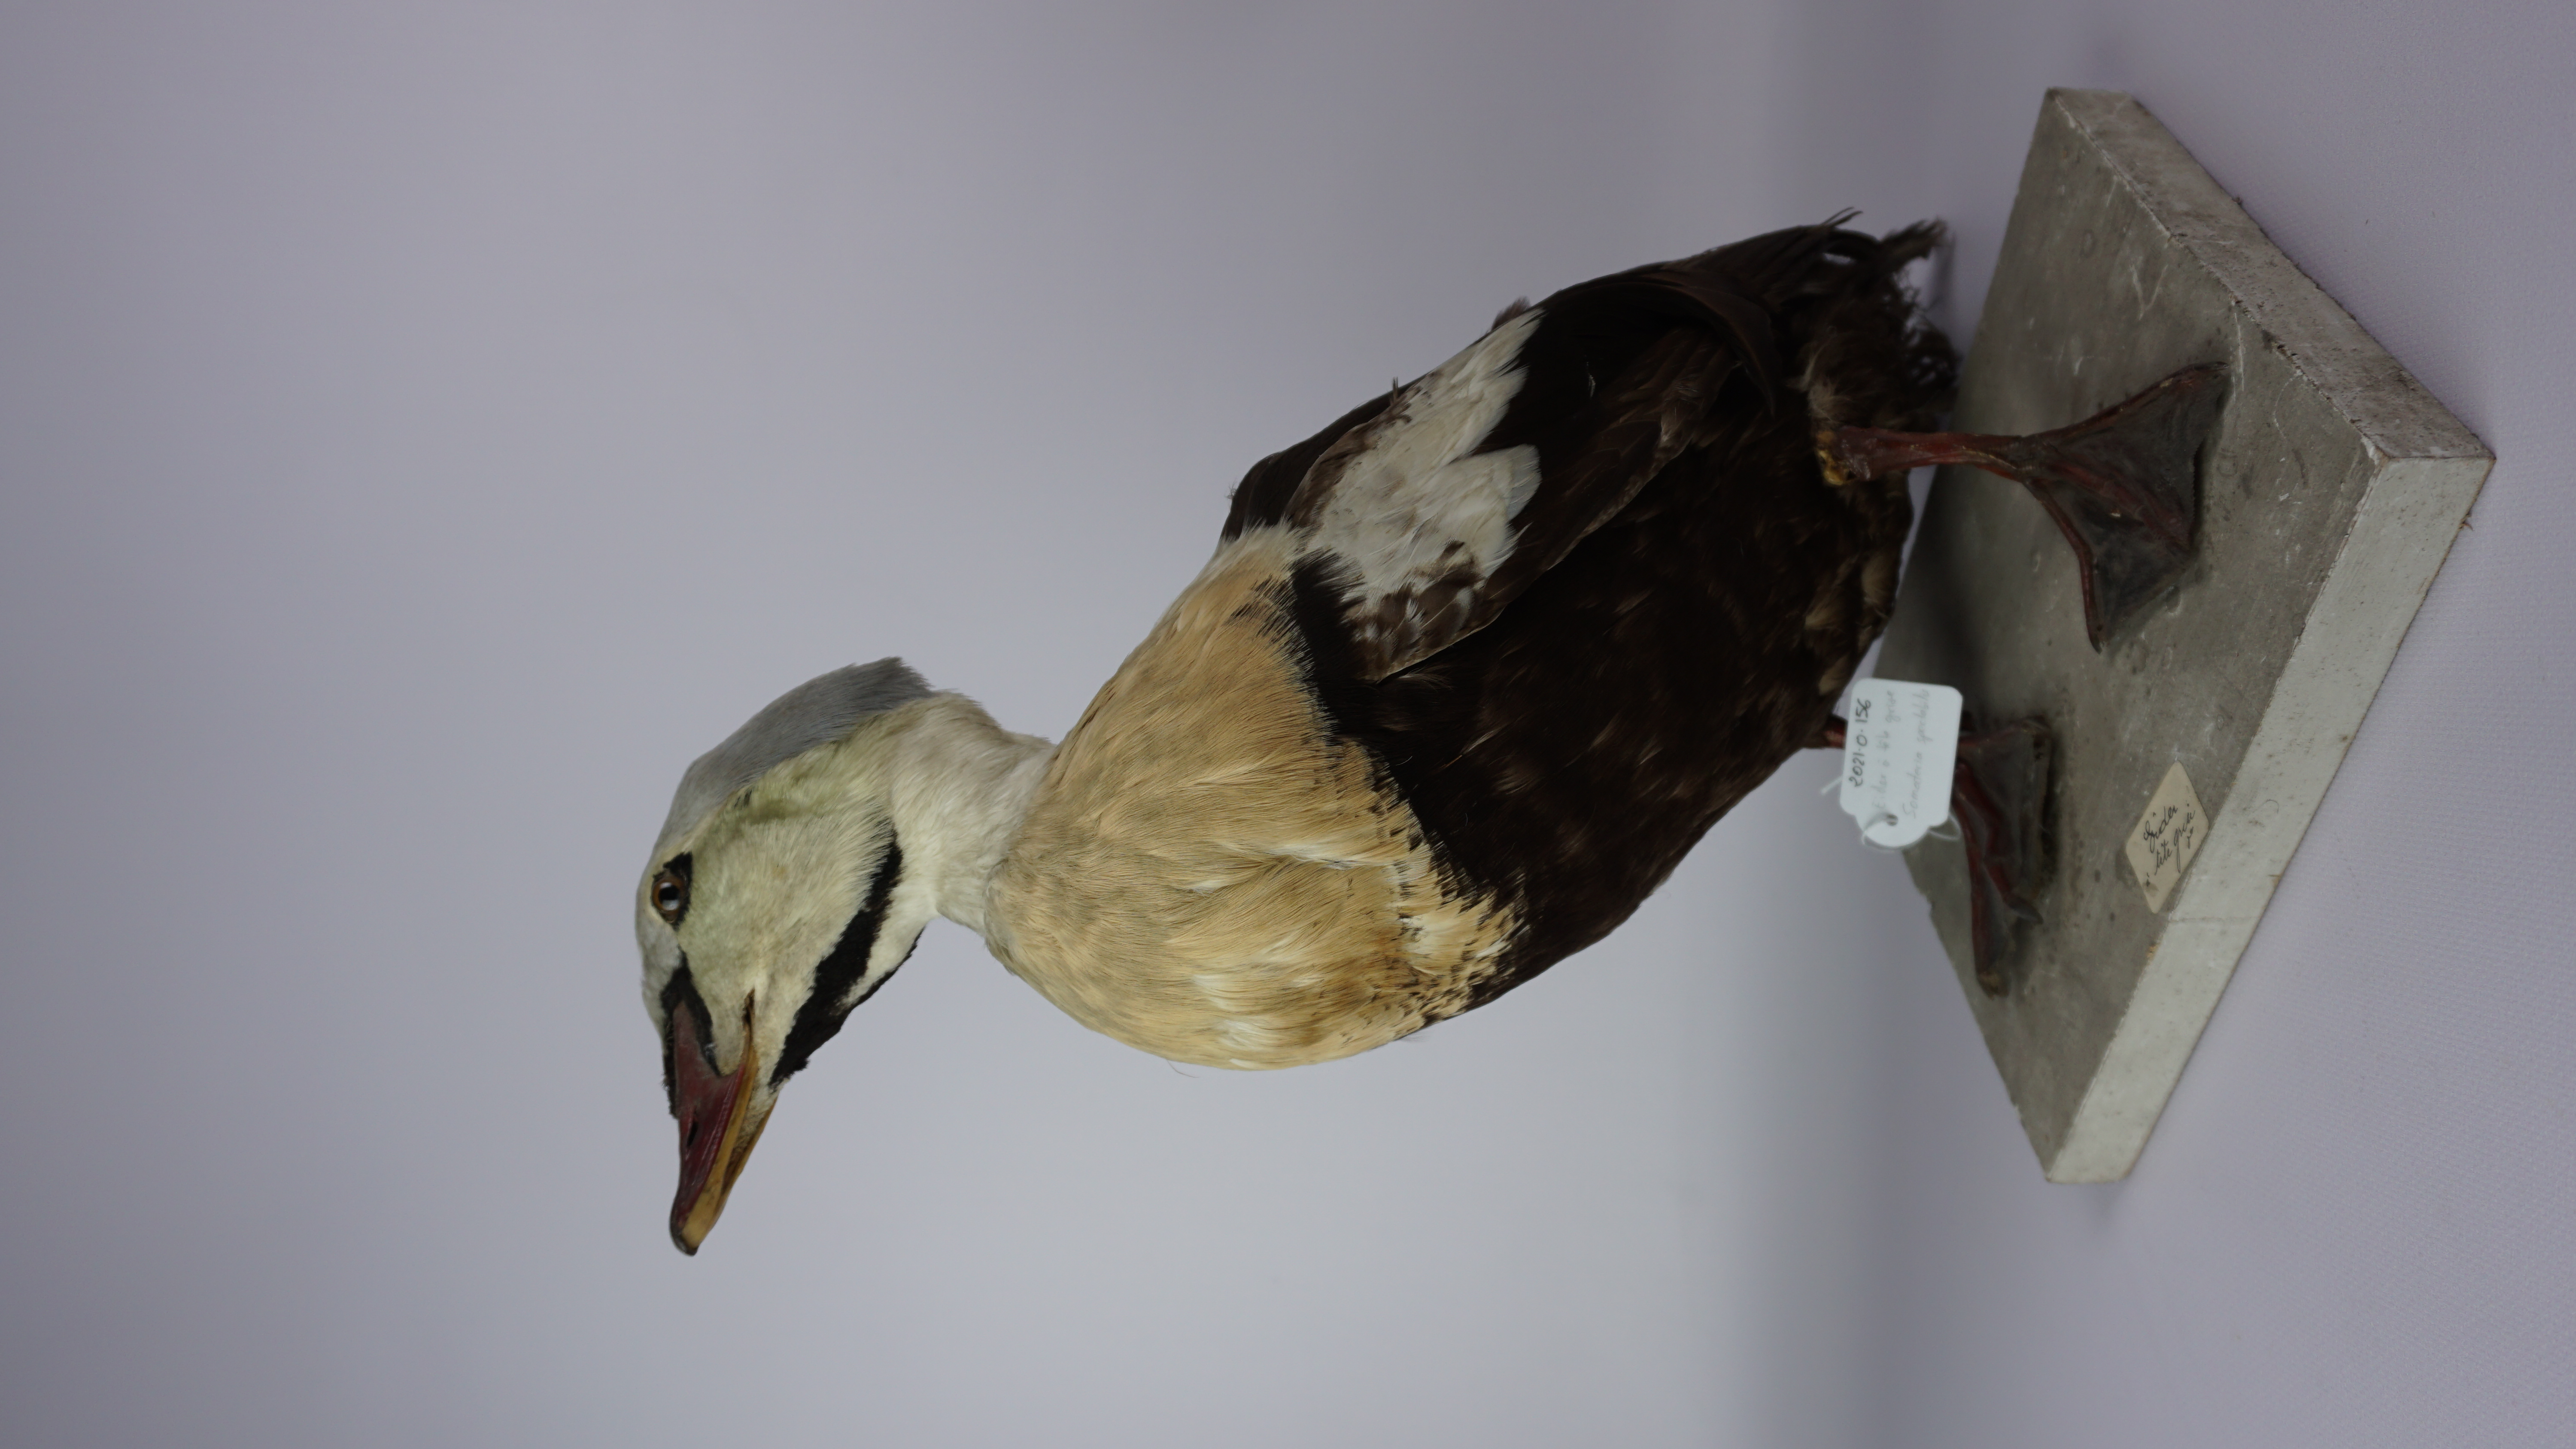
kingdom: Animalia
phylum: Chordata
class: Aves
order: Anseriformes
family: Anatidae
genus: Somateria
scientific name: Somateria spectabilis
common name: King eider
